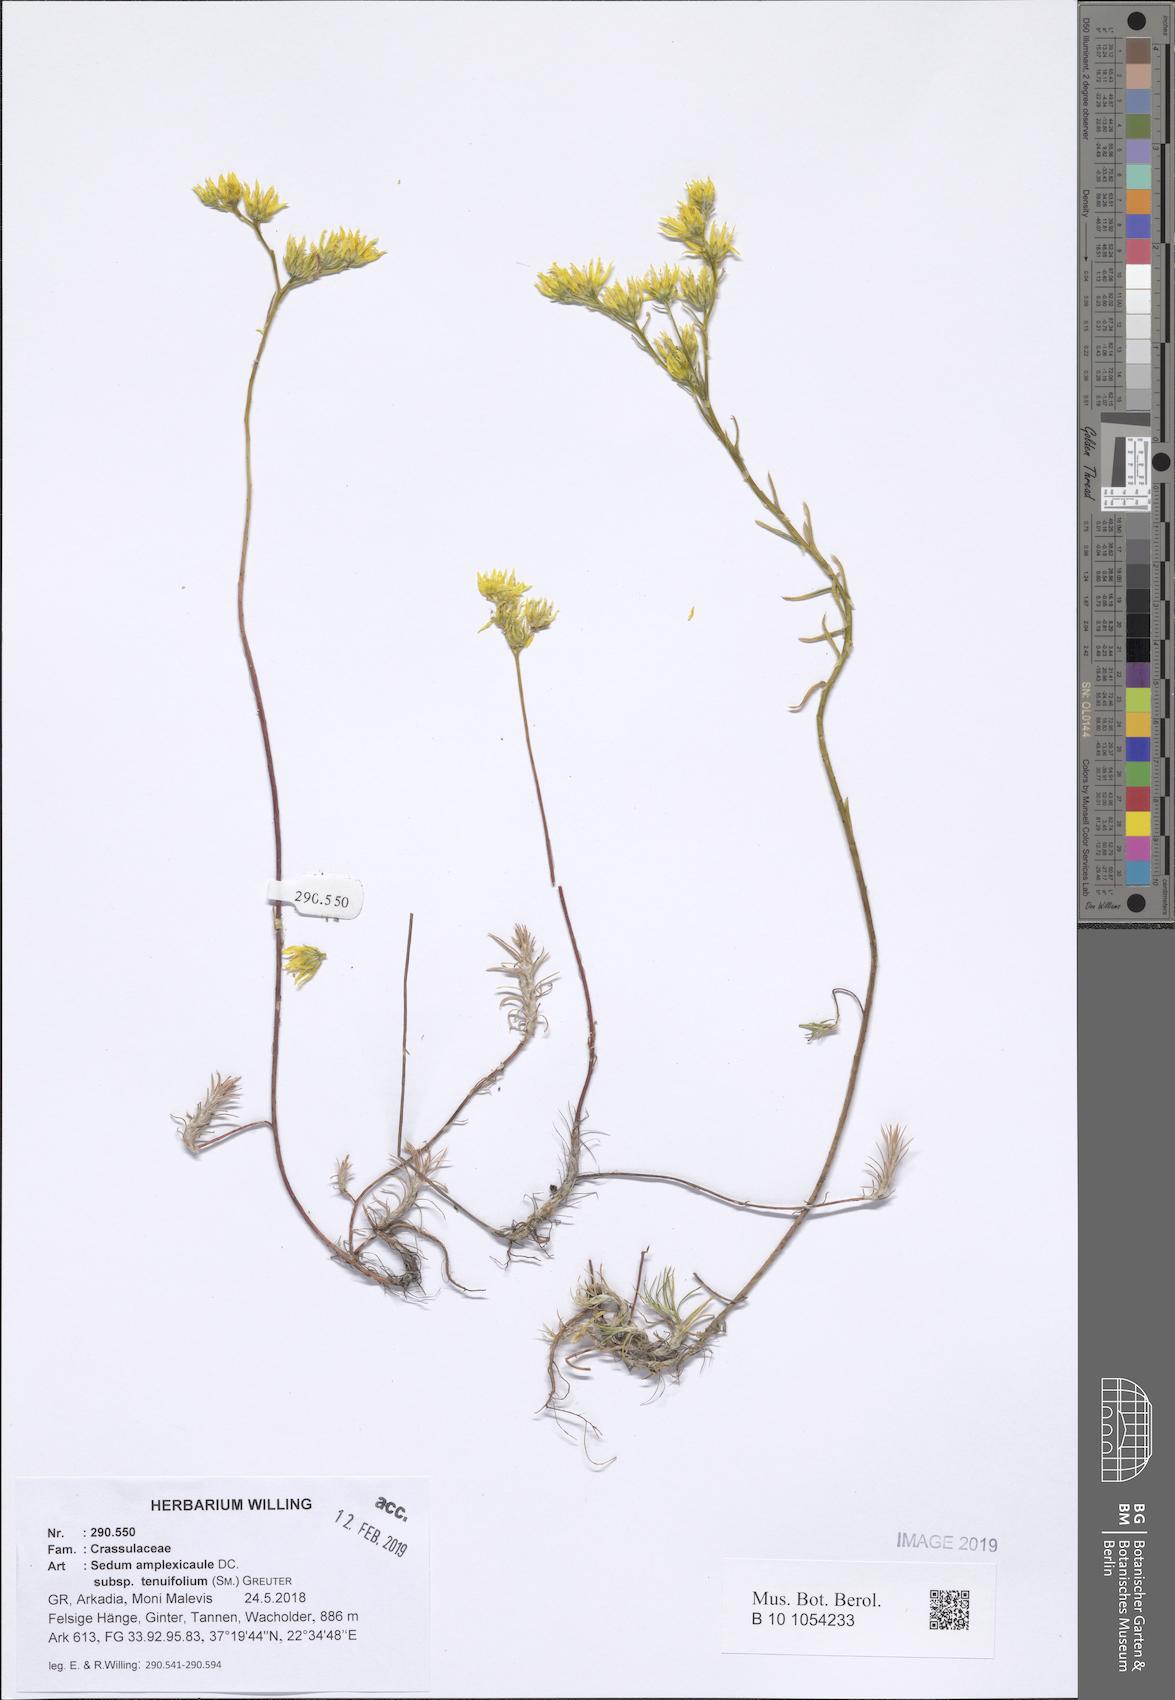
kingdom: Plantae
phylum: Tracheophyta
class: Magnoliopsida
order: Saxifragales
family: Crassulaceae
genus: Petrosedum
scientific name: Petrosedum tenuifolium
